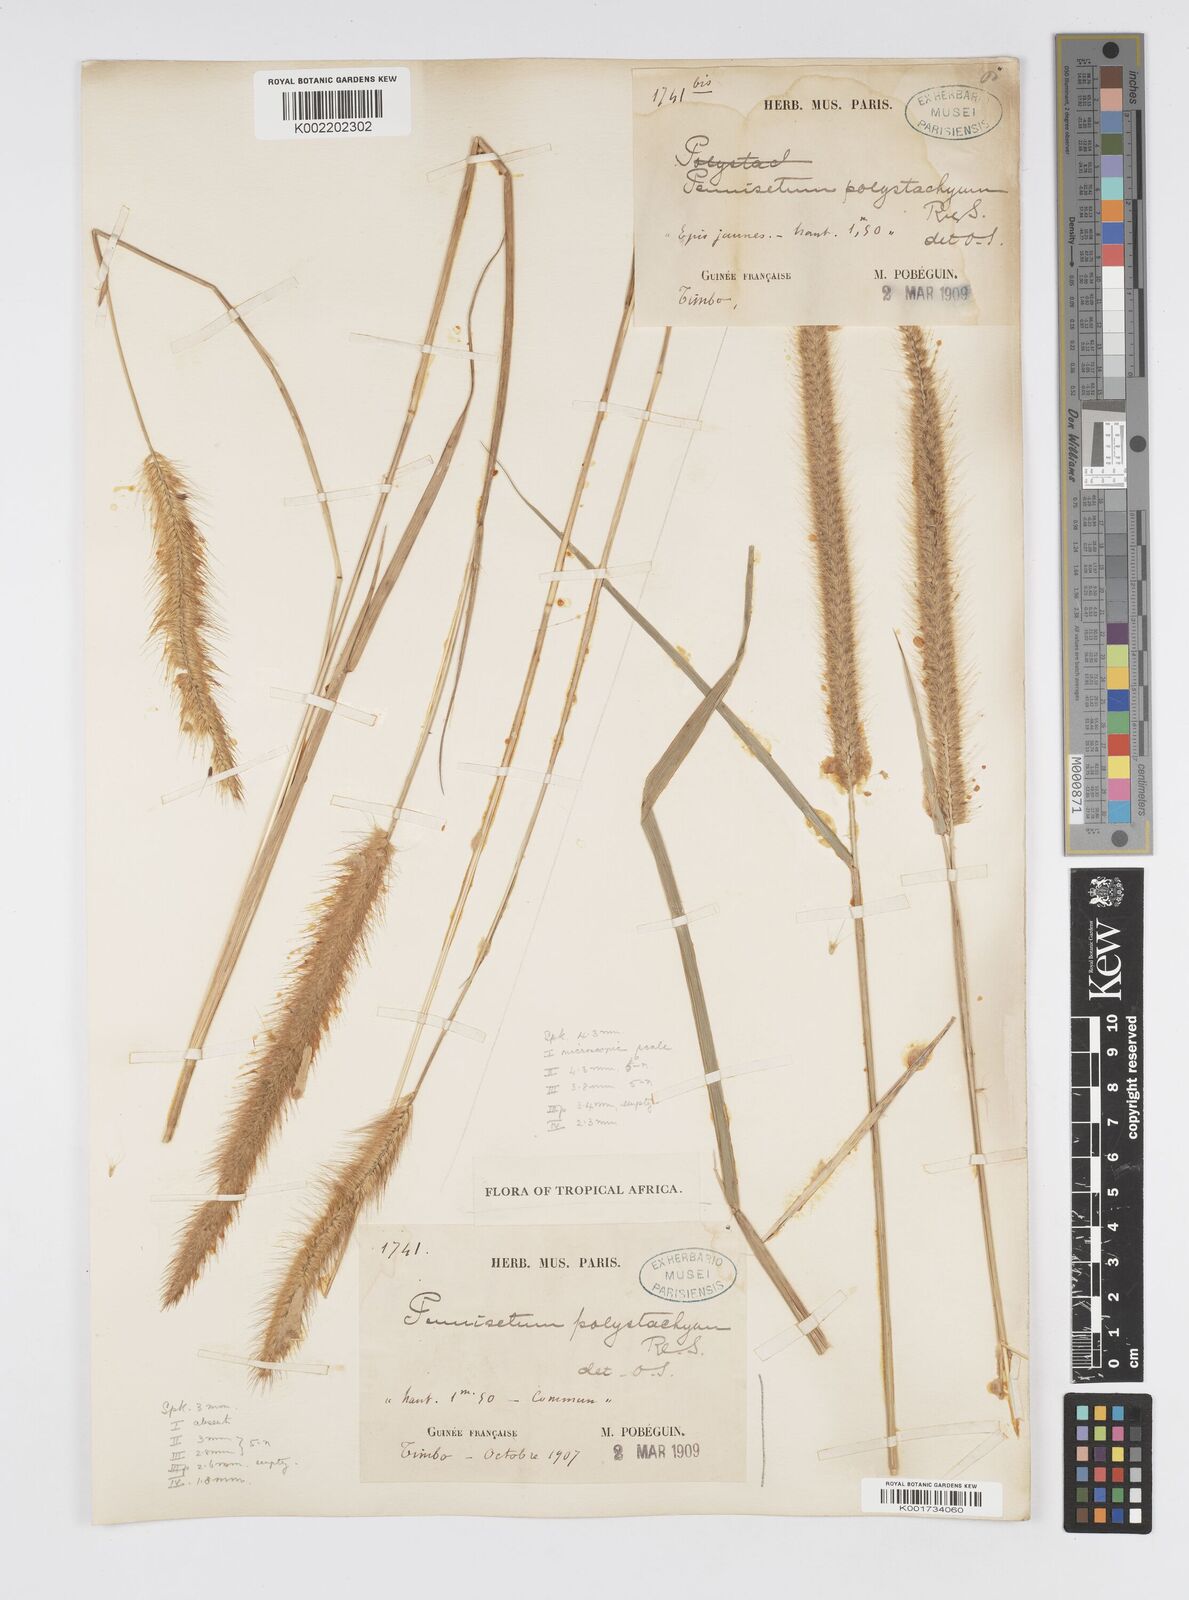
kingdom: Plantae
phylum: Tracheophyta
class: Liliopsida
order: Poales
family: Poaceae
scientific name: Poaceae
